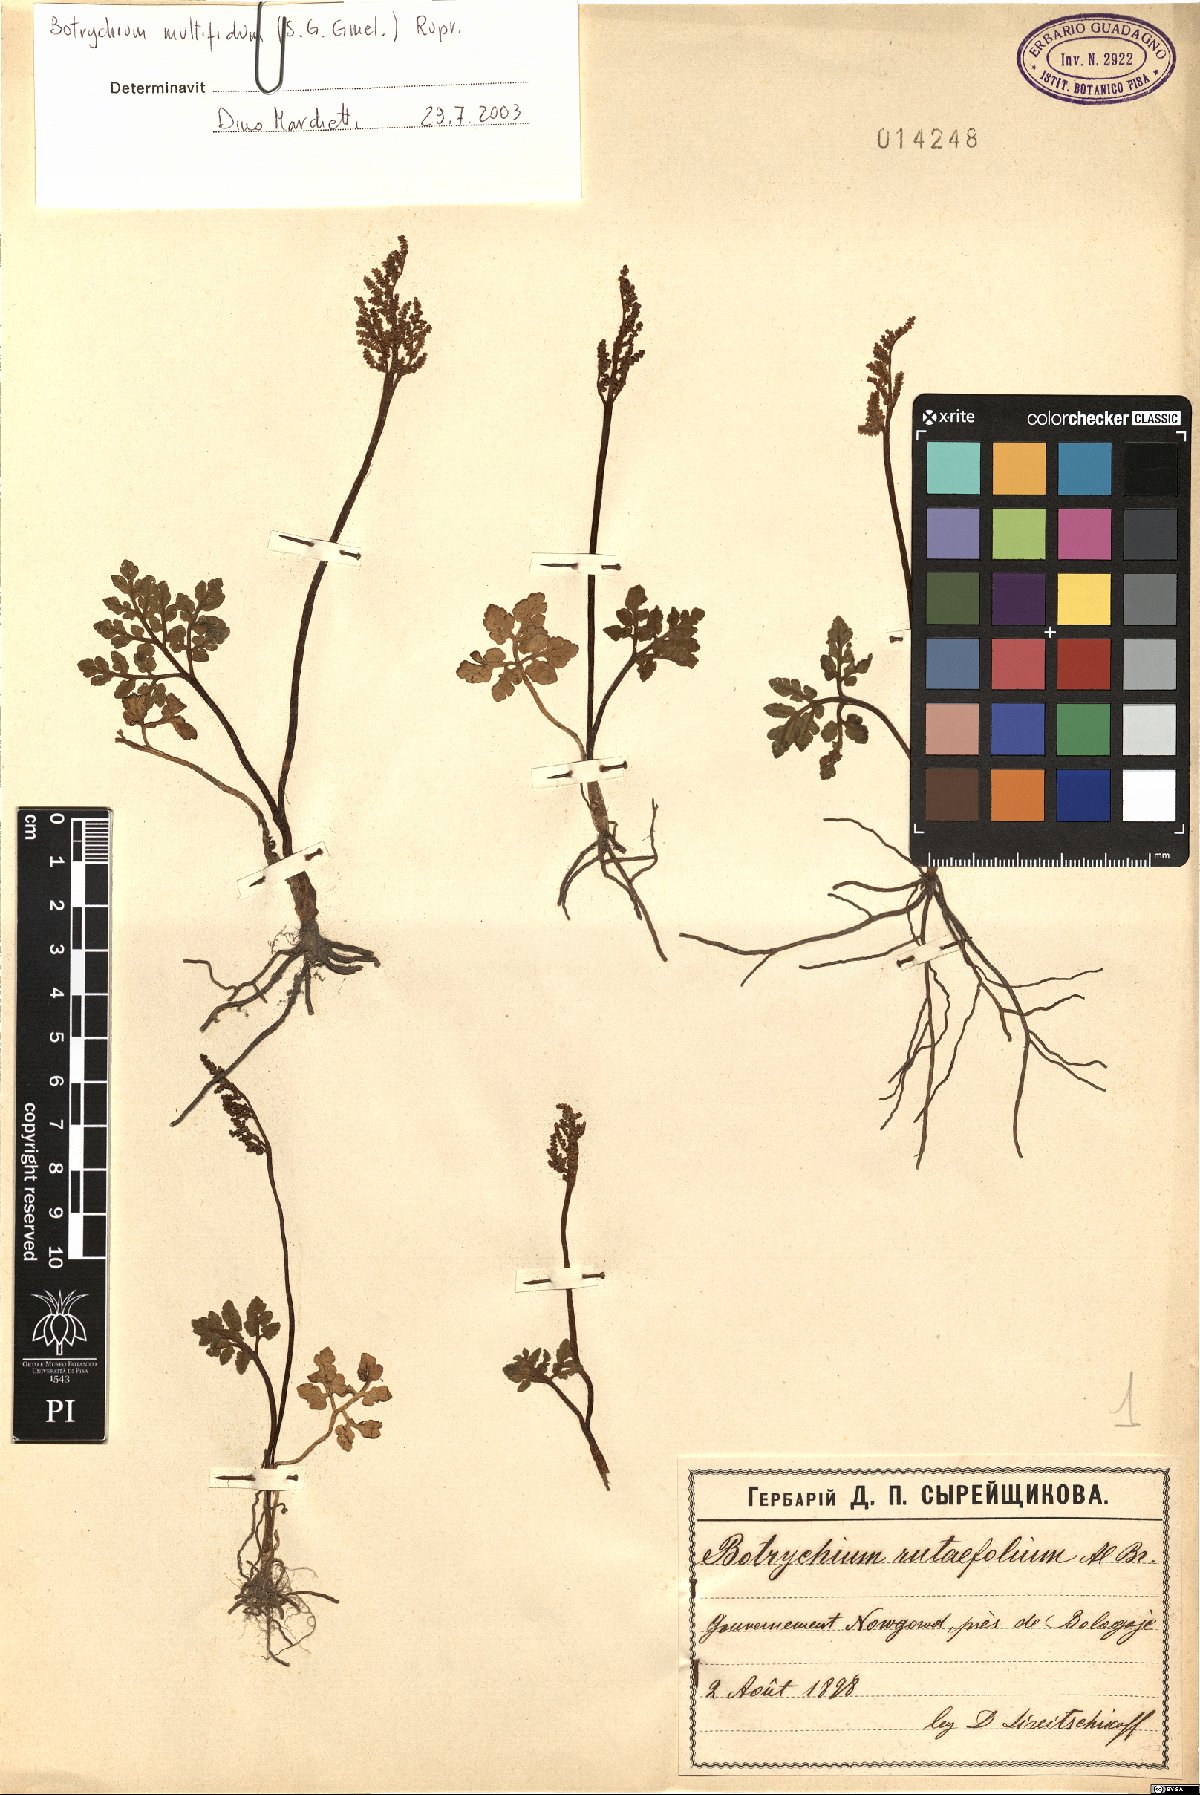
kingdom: Plantae
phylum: Tracheophyta
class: Polypodiopsida
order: Ophioglossales
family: Ophioglossaceae
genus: Sceptridium
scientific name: Sceptridium multifidum
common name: Leathery grape fern
